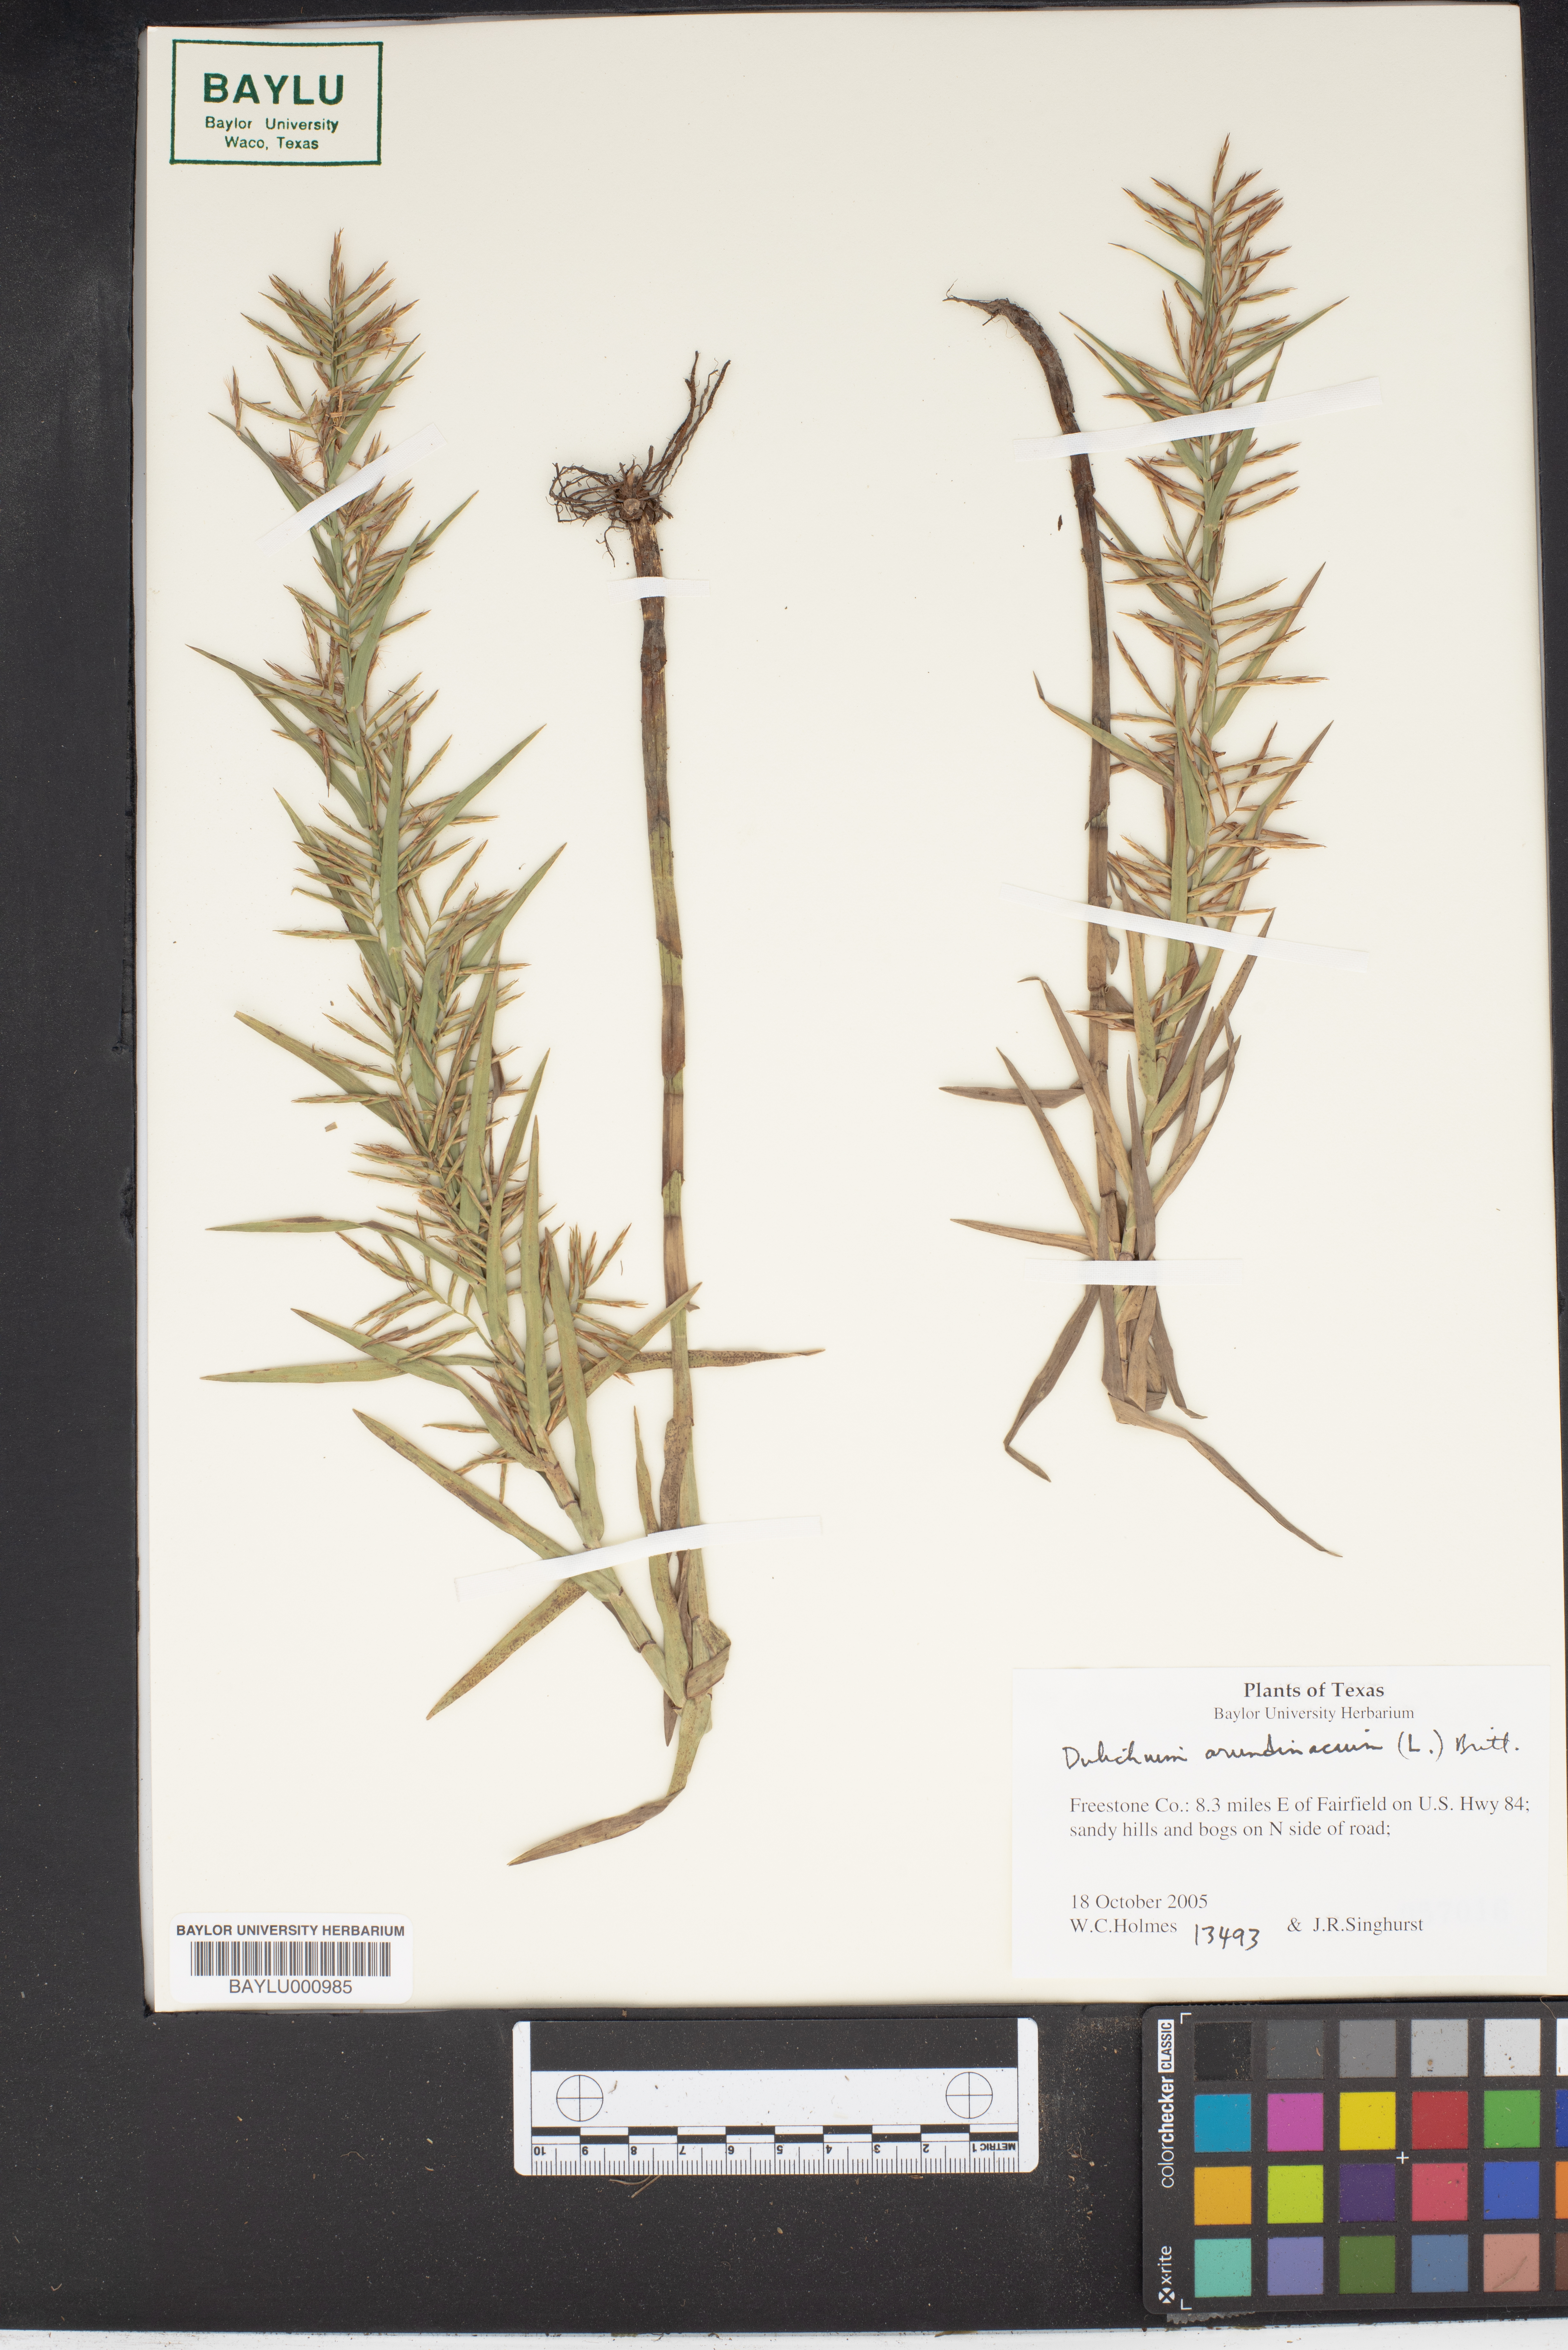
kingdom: Plantae
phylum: Tracheophyta
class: Liliopsida
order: Poales
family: Cyperaceae
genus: Dulichium
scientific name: Dulichium arundinaceum
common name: Three-way sedge
